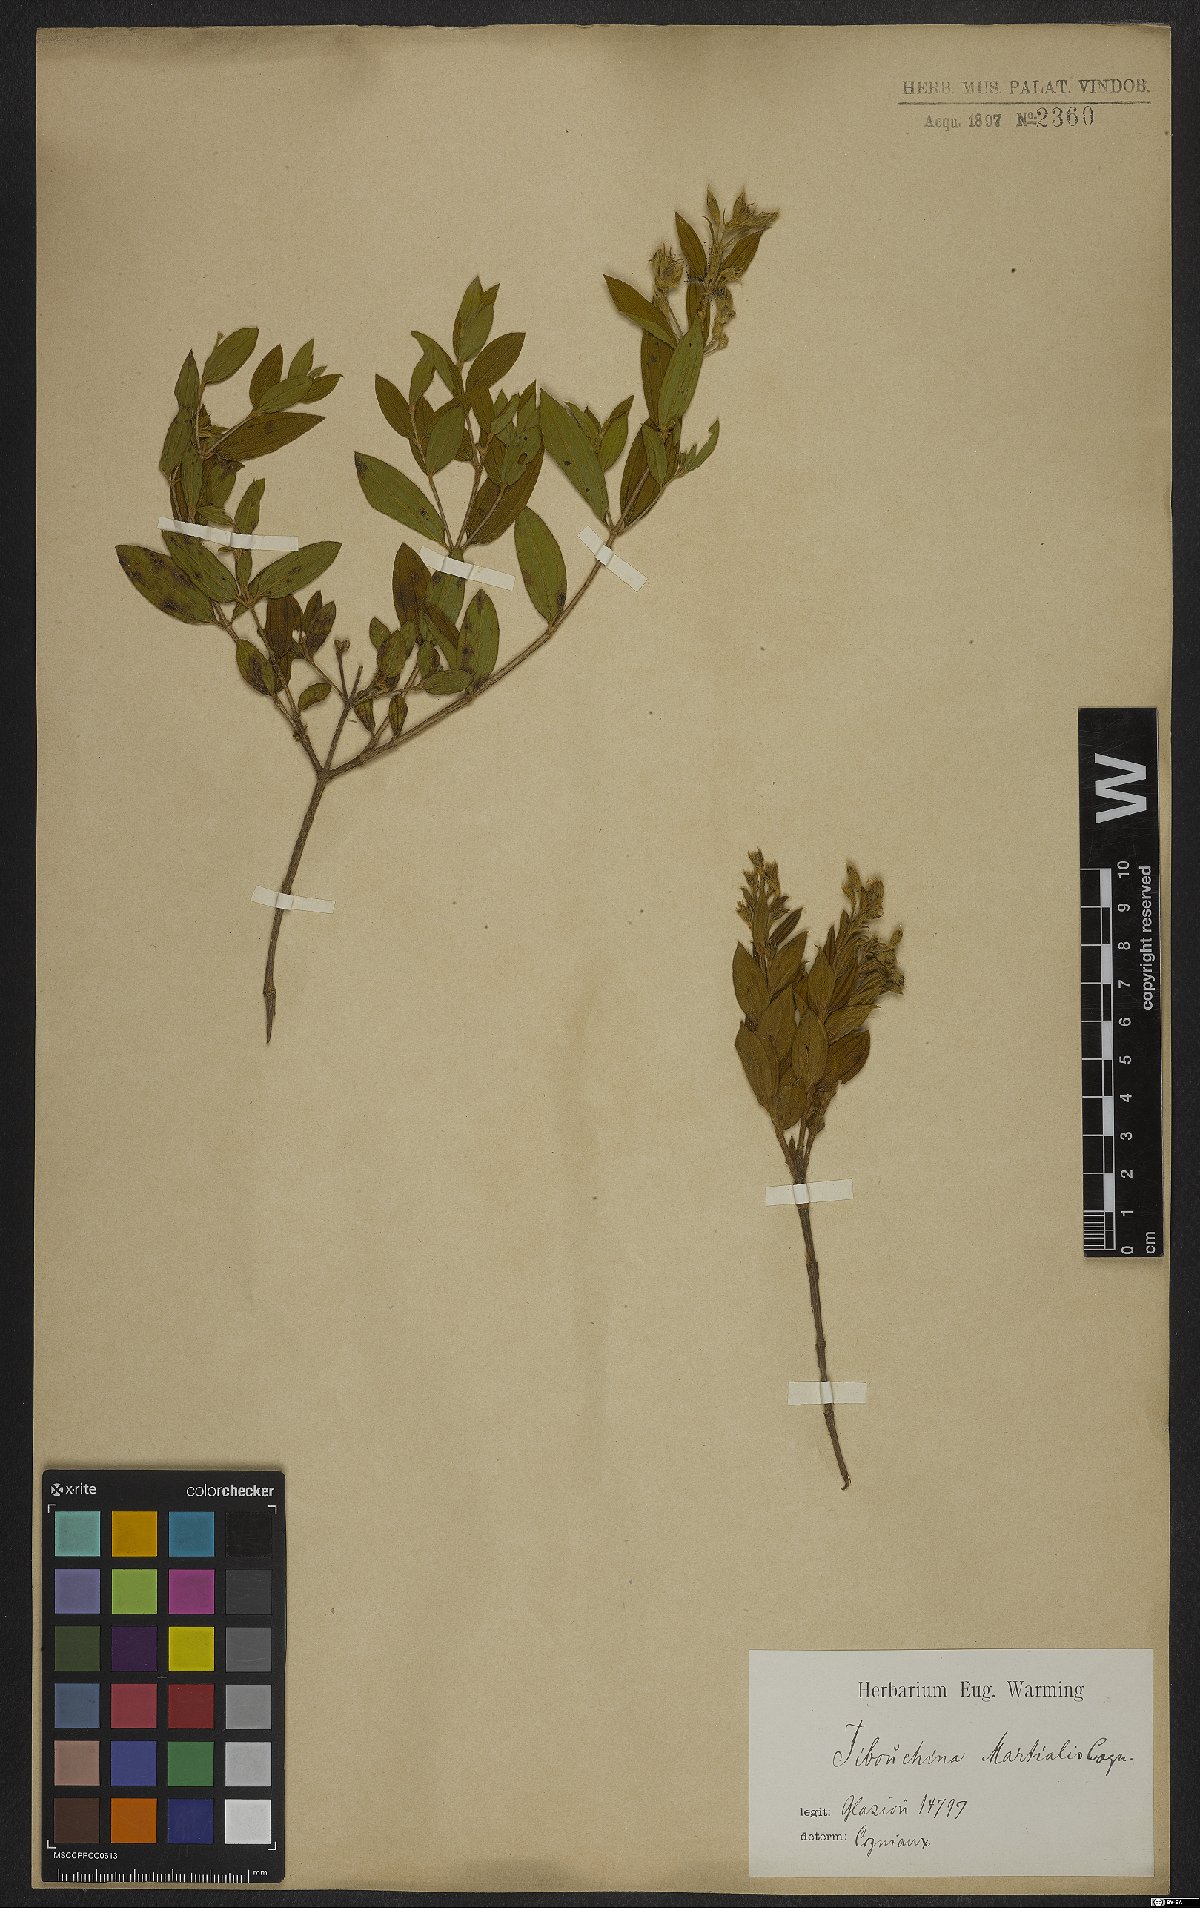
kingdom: Plantae
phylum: Tracheophyta
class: Magnoliopsida
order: Myrtales
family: Melastomataceae
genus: Pleroma
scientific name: Pleroma martiale
